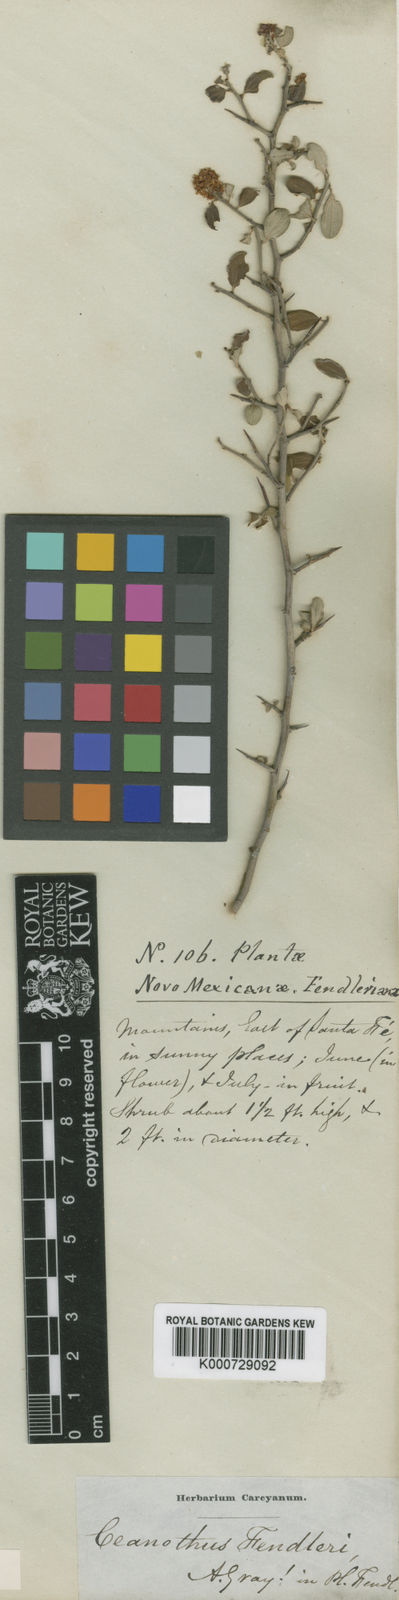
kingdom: Plantae
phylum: Tracheophyta
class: Magnoliopsida
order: Rosales
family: Rhamnaceae
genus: Ceanothus
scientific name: Ceanothus fendleri
